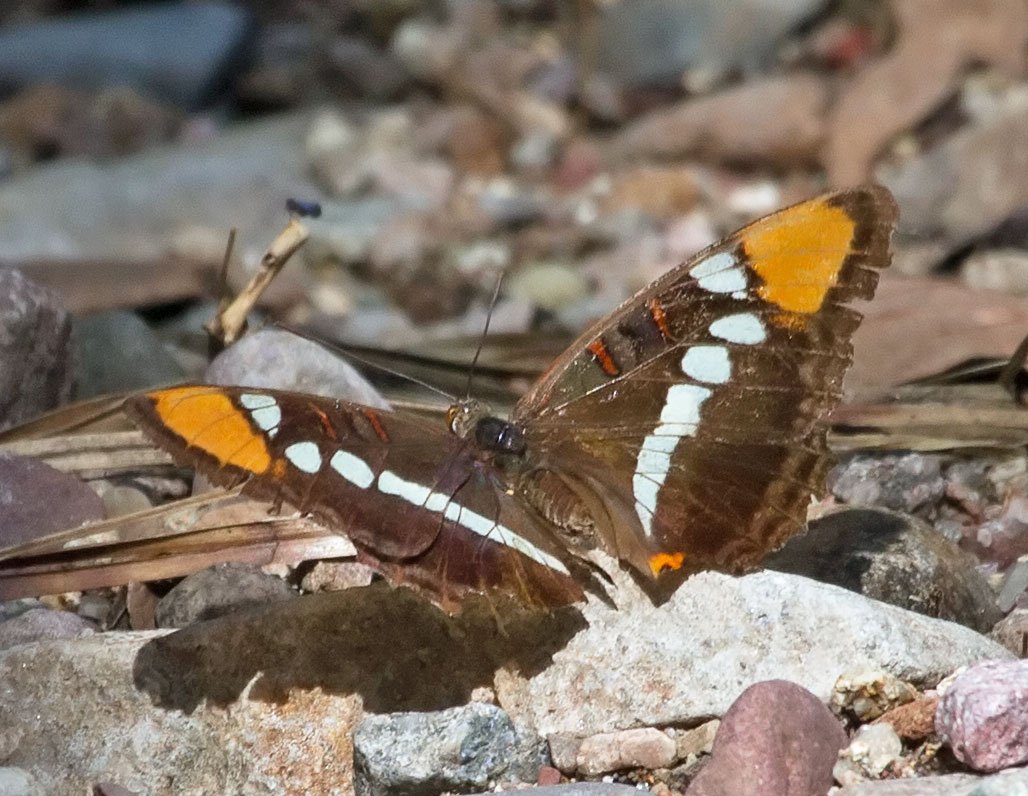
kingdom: Animalia
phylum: Arthropoda
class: Insecta
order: Lepidoptera
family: Nymphalidae
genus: Limenitis
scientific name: Limenitis bredowii
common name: Arizona Sister
